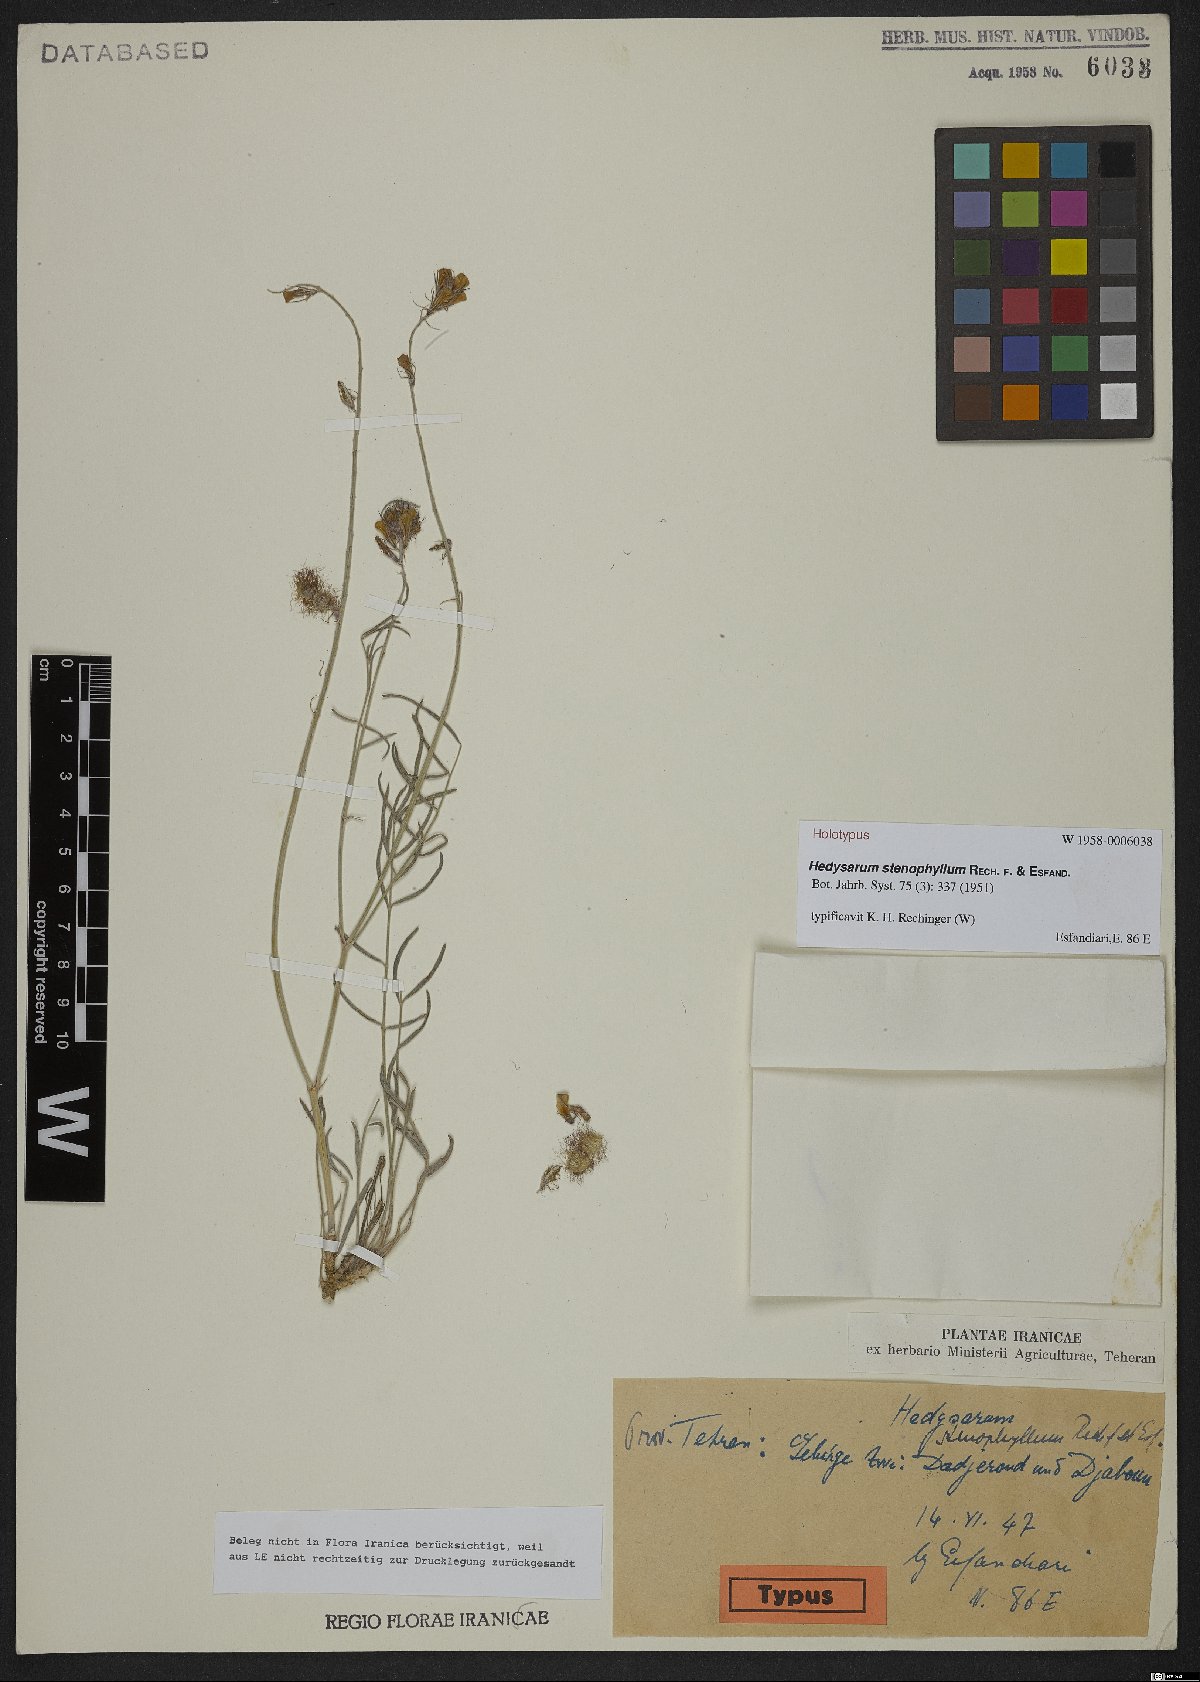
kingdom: Plantae
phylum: Tracheophyta
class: Magnoliopsida
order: Fabales
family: Fabaceae
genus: Hedysarum
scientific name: Hedysarum stenophyllum
